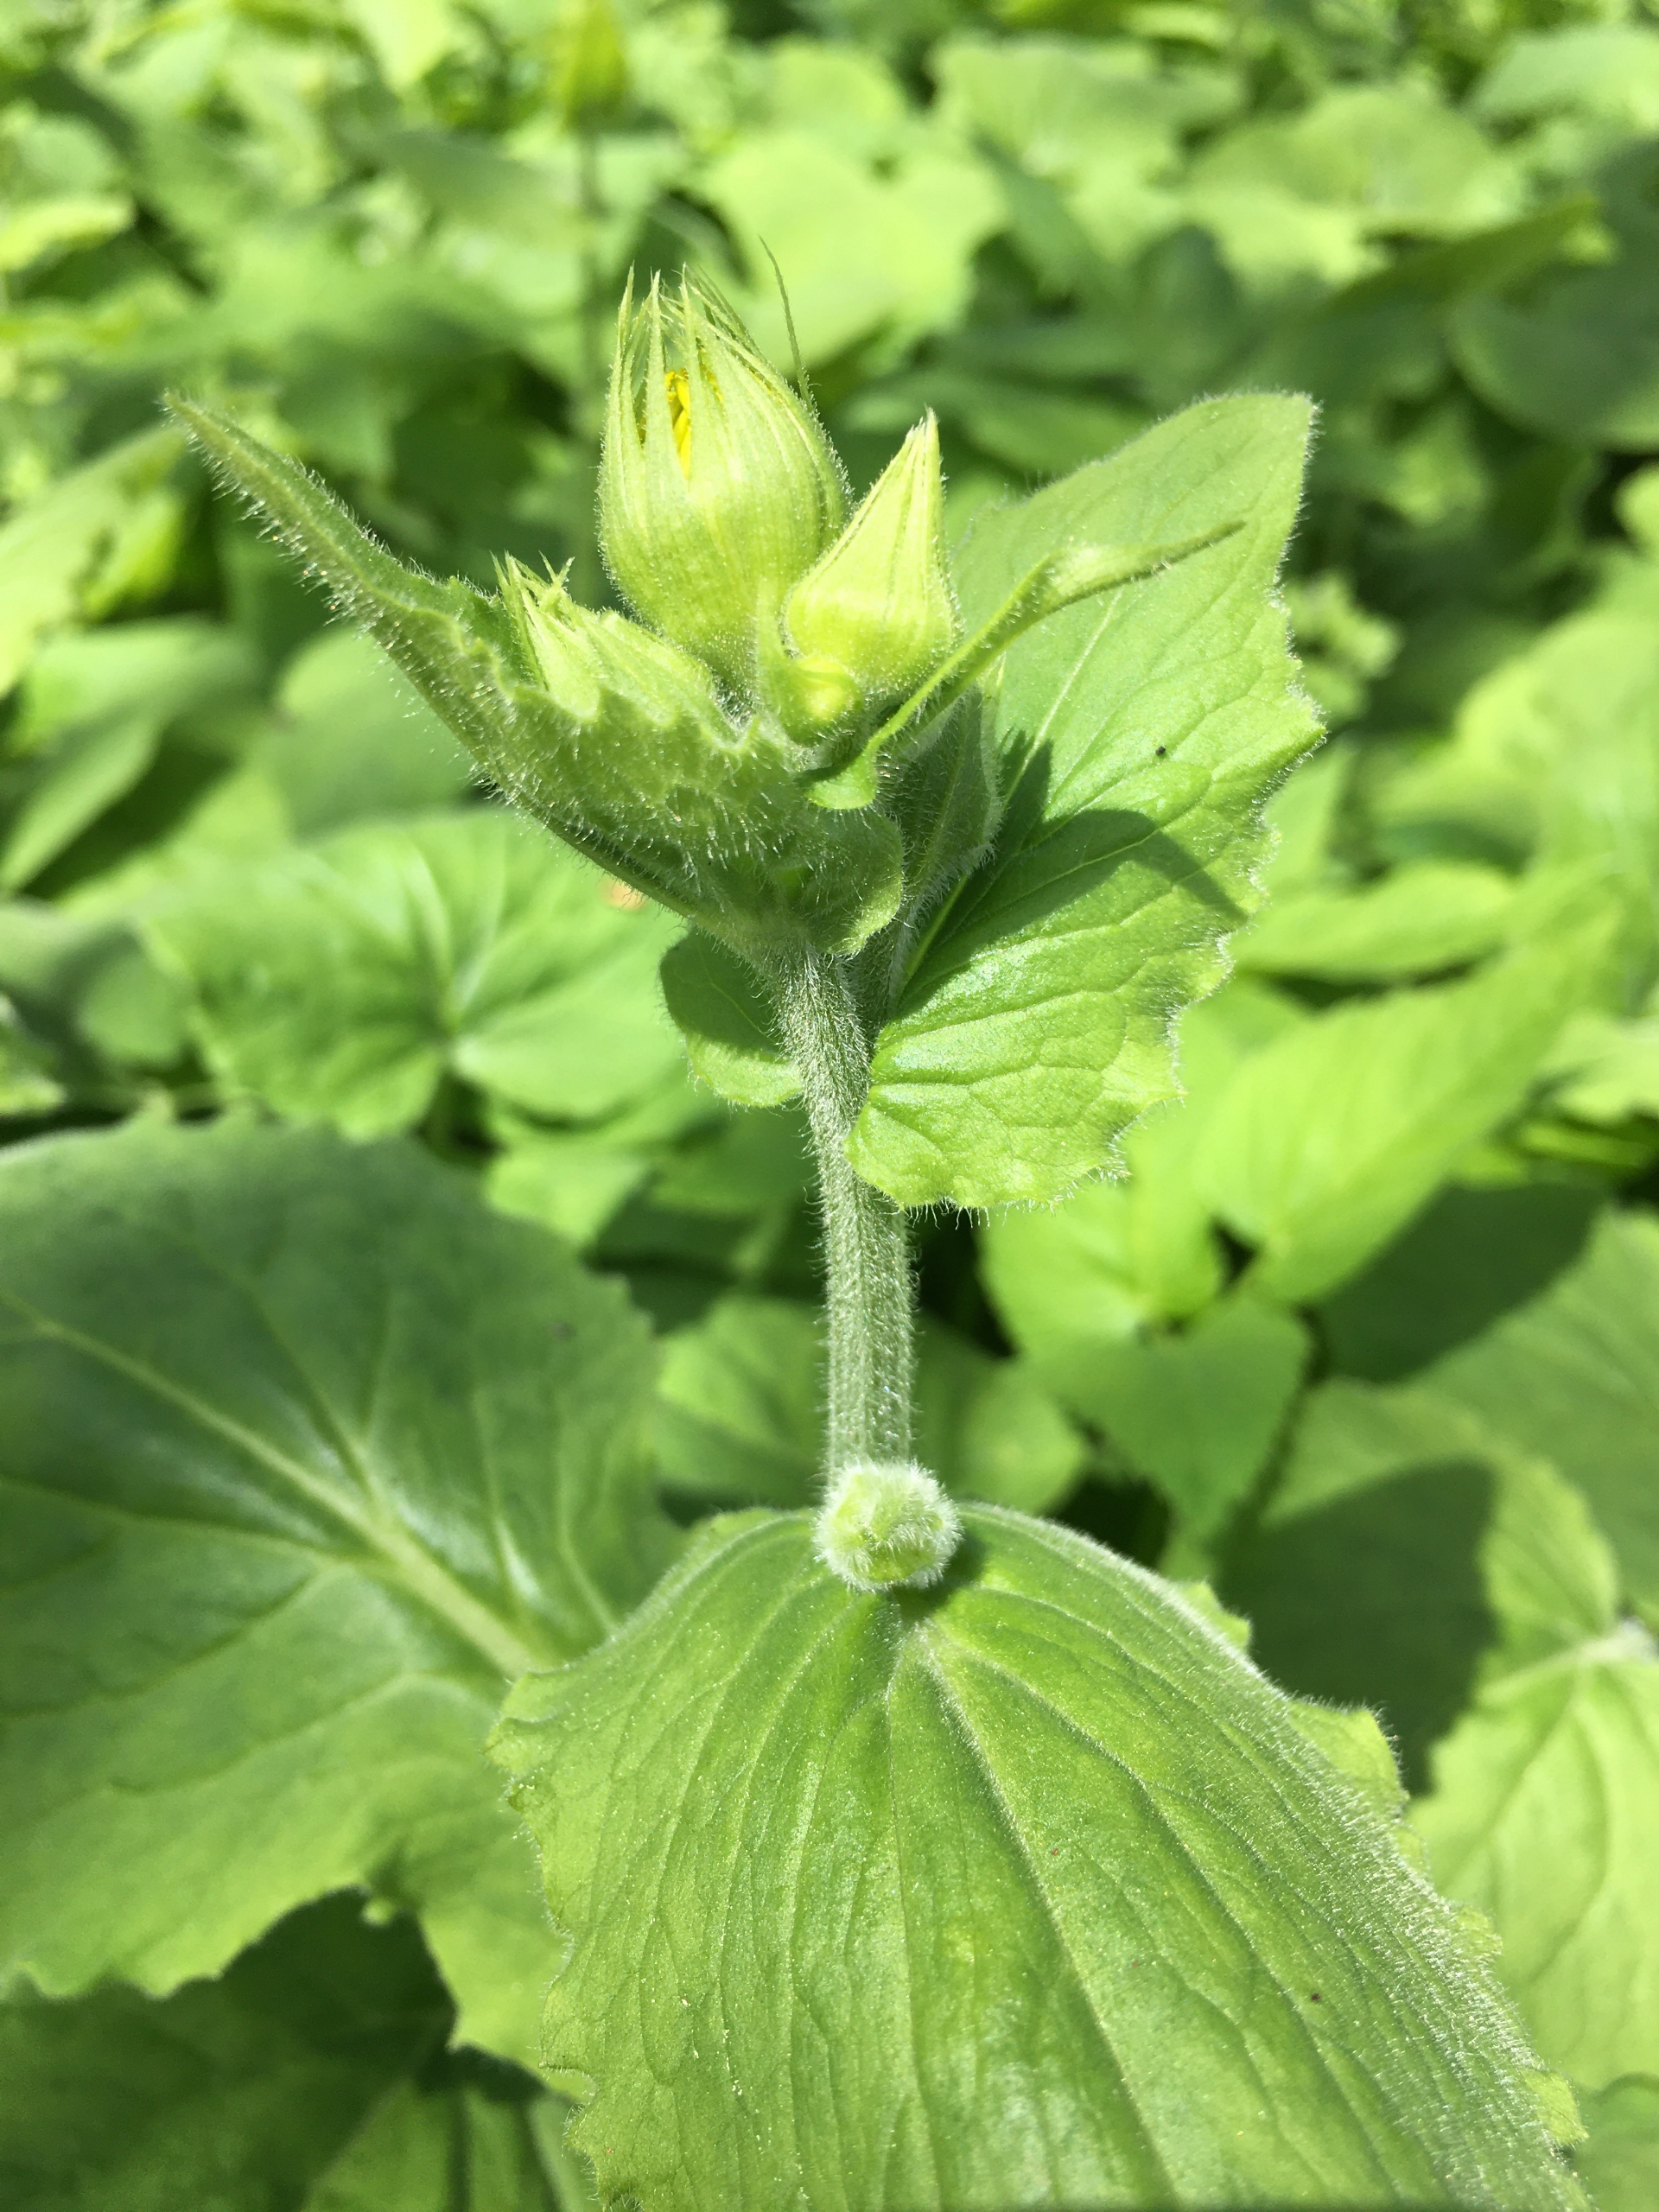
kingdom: Plantae
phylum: Tracheophyta
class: Magnoliopsida
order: Asterales
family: Asteraceae
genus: Doronicum
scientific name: Doronicum pardalianches
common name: Hjertebladet gemserod
